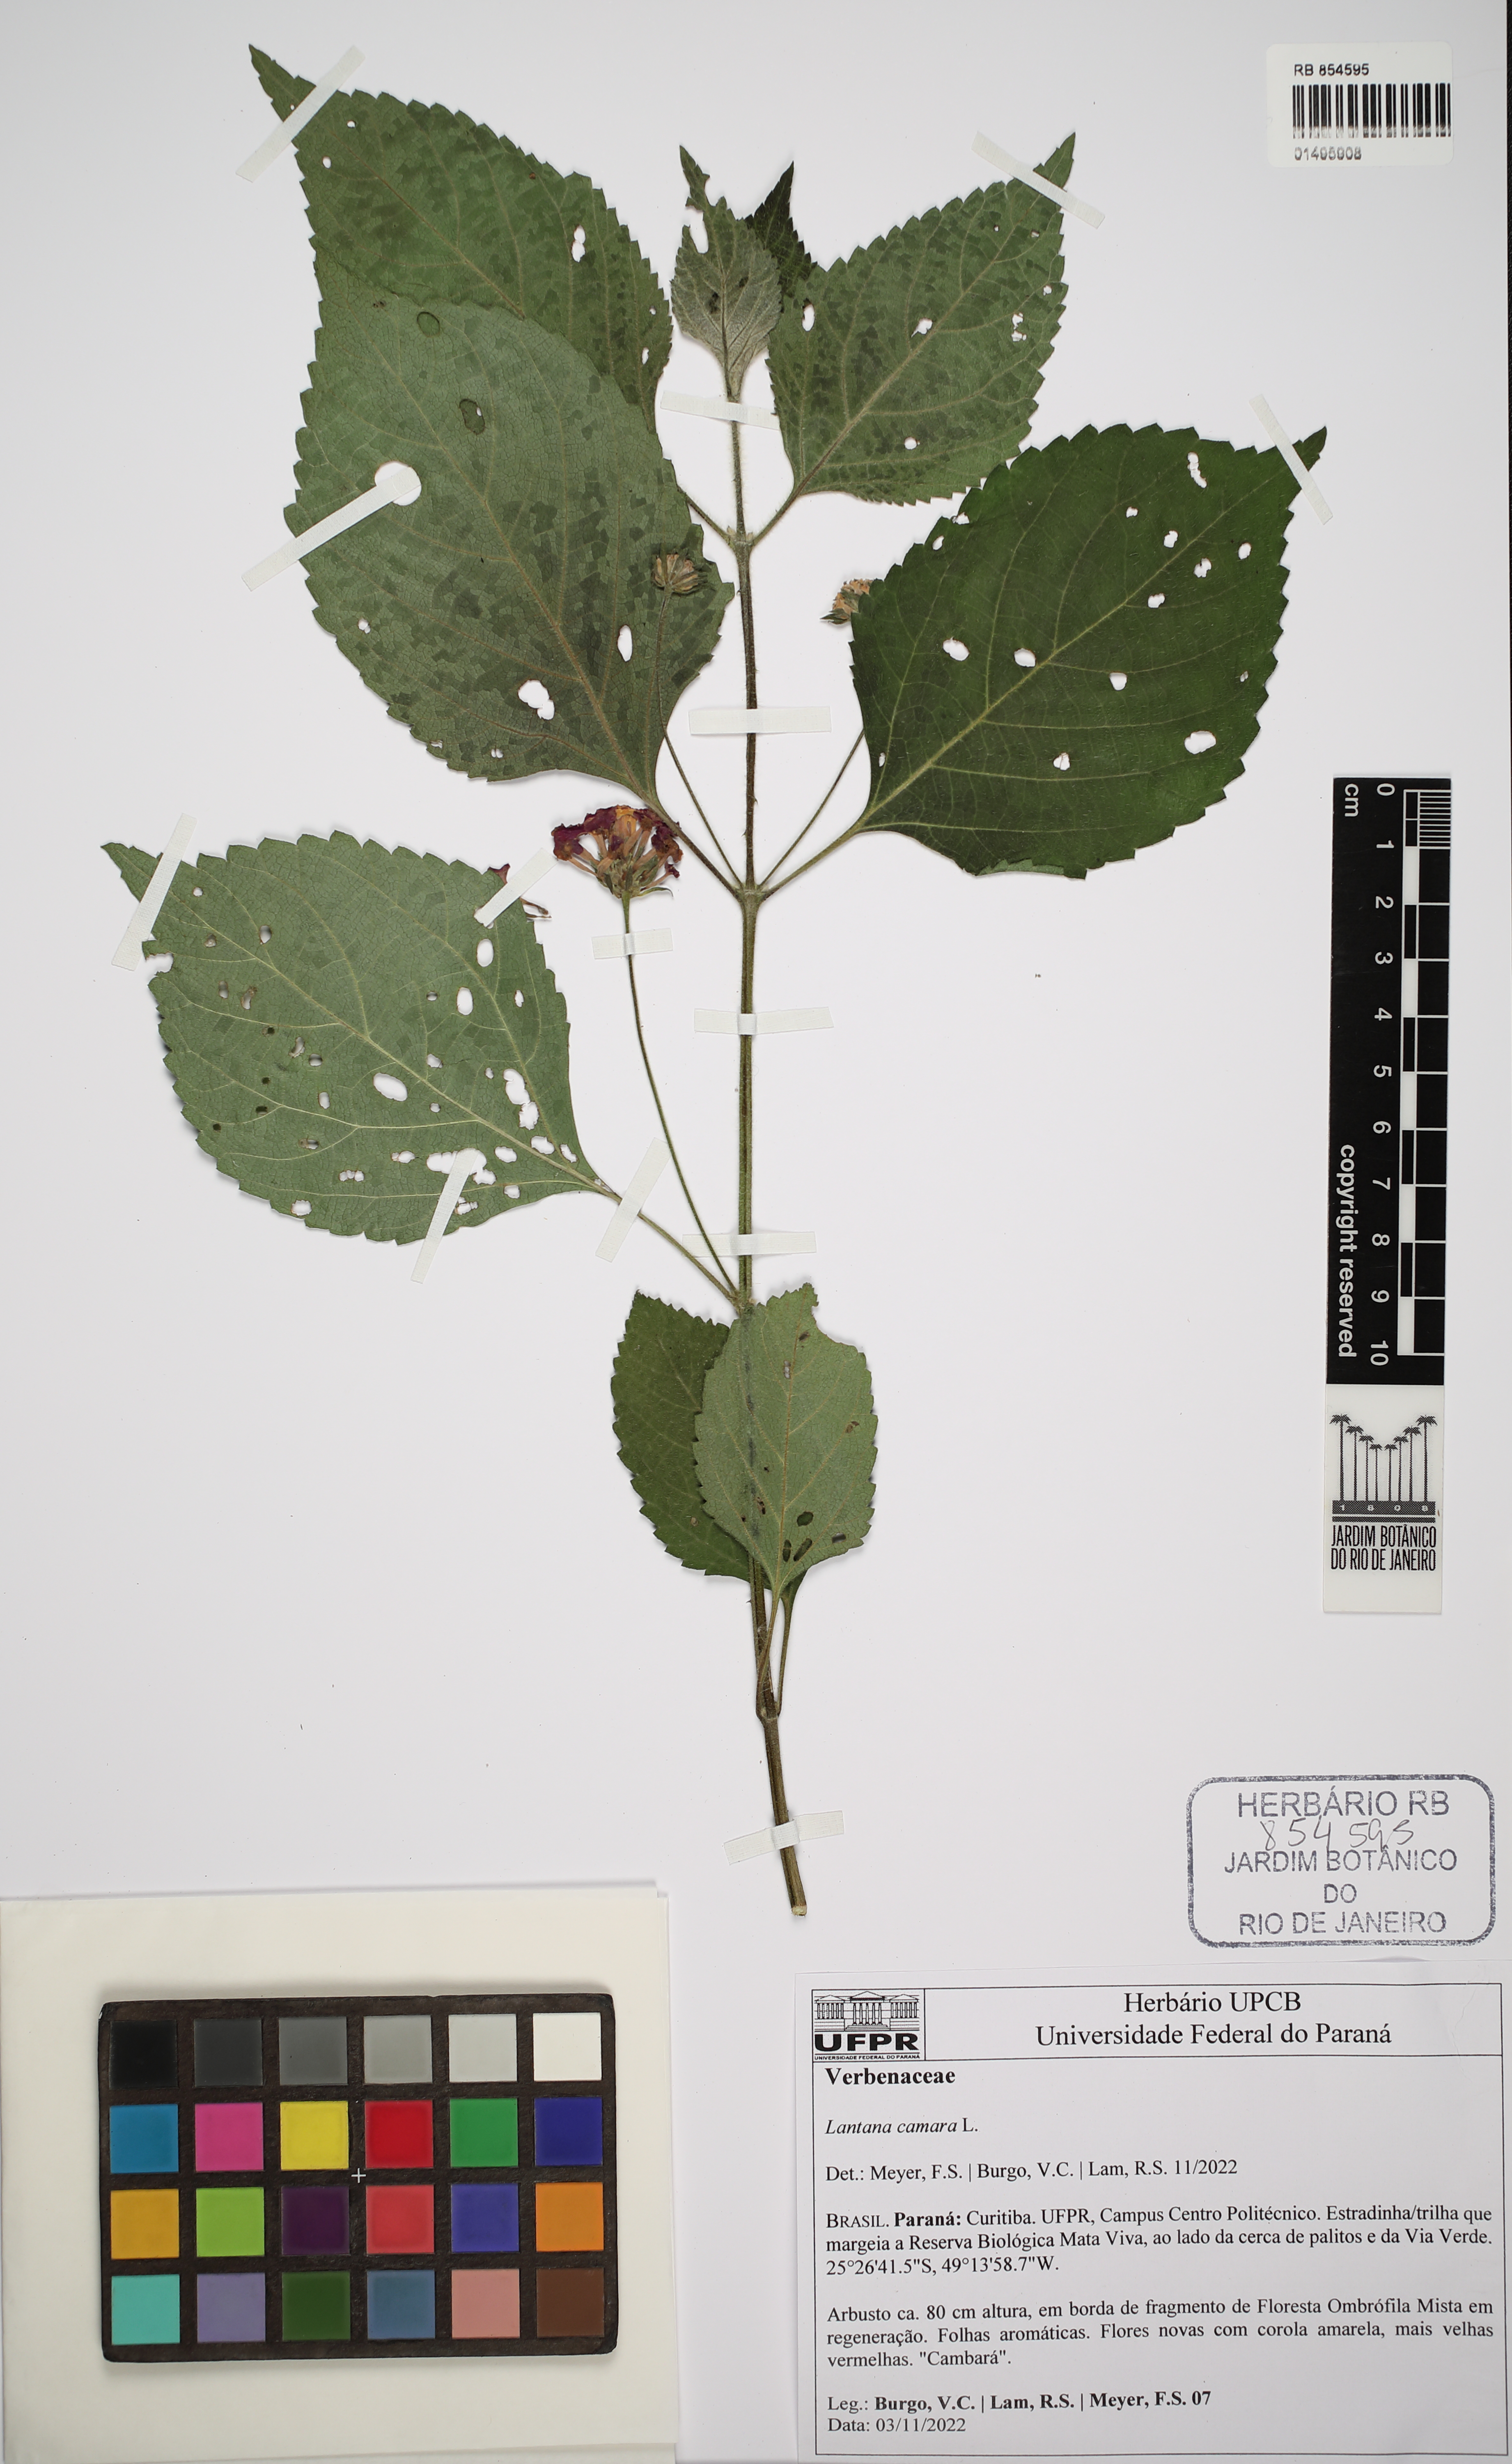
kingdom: Plantae
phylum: Tracheophyta
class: Magnoliopsida
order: Lamiales
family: Verbenaceae
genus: Lantana
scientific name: Lantana camara
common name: Lantana
